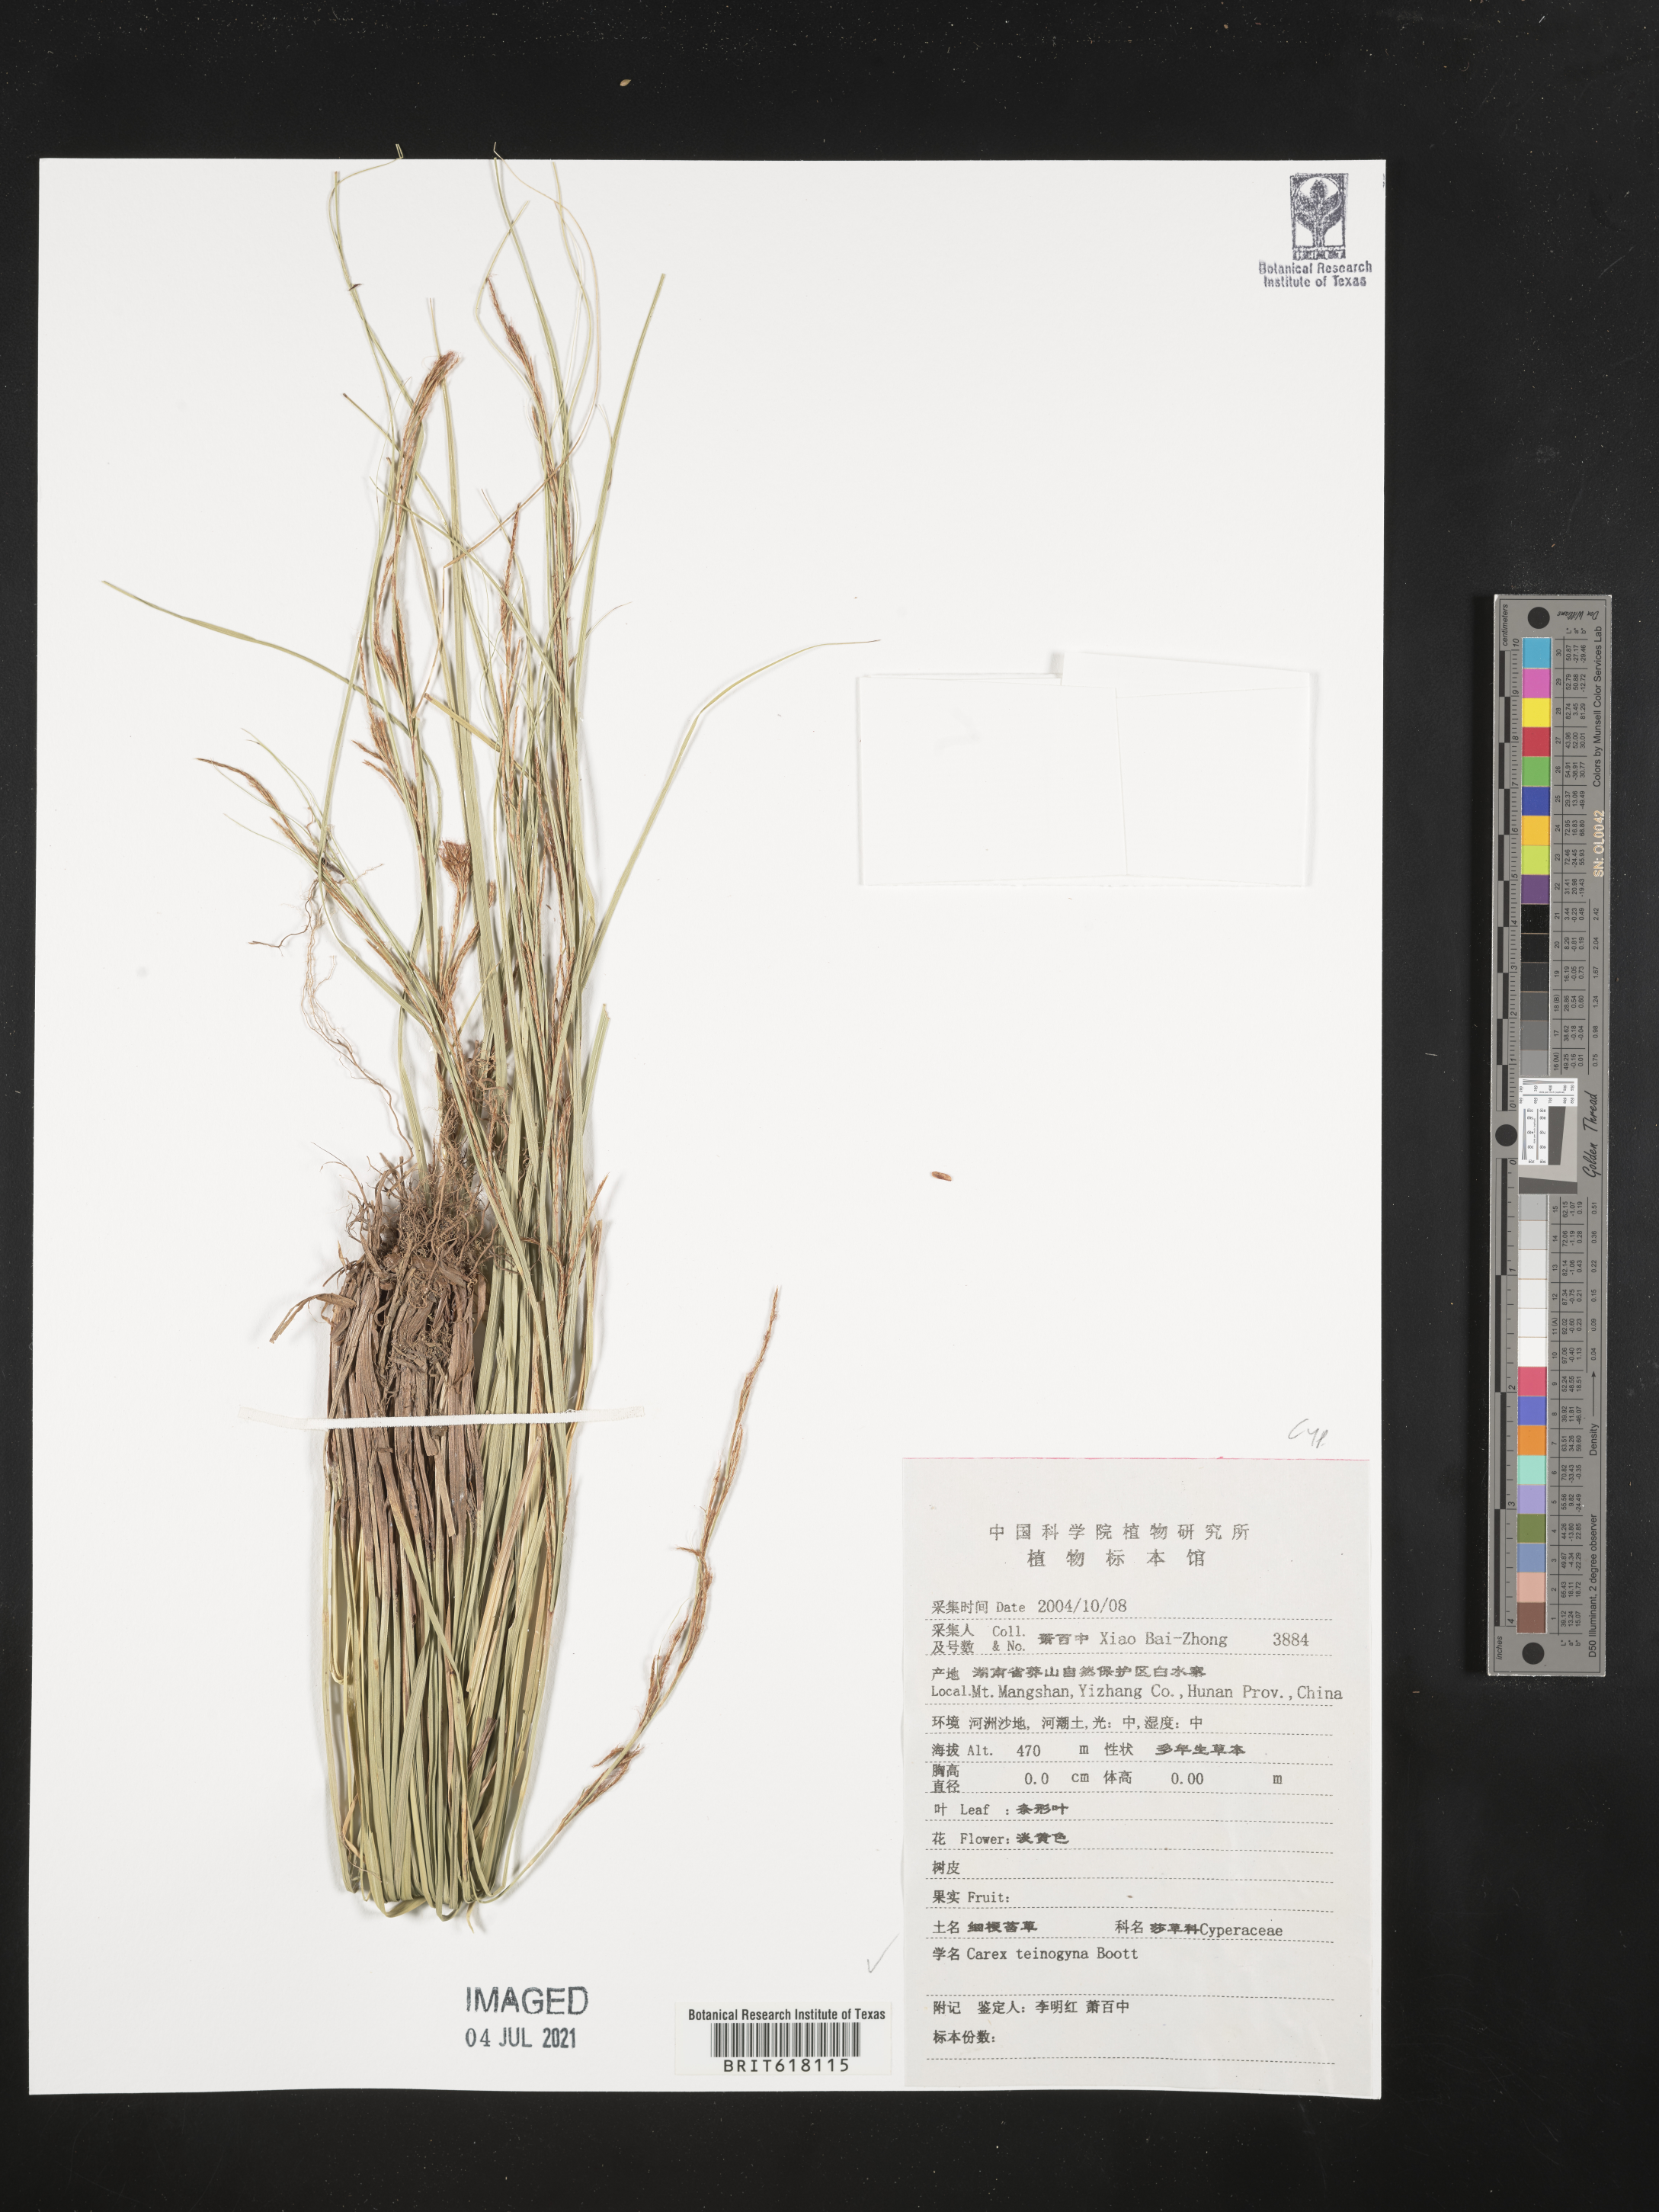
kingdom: Plantae
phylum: Tracheophyta
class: Liliopsida
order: Poales
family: Cyperaceae
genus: Carex
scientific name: Carex teinogyna
